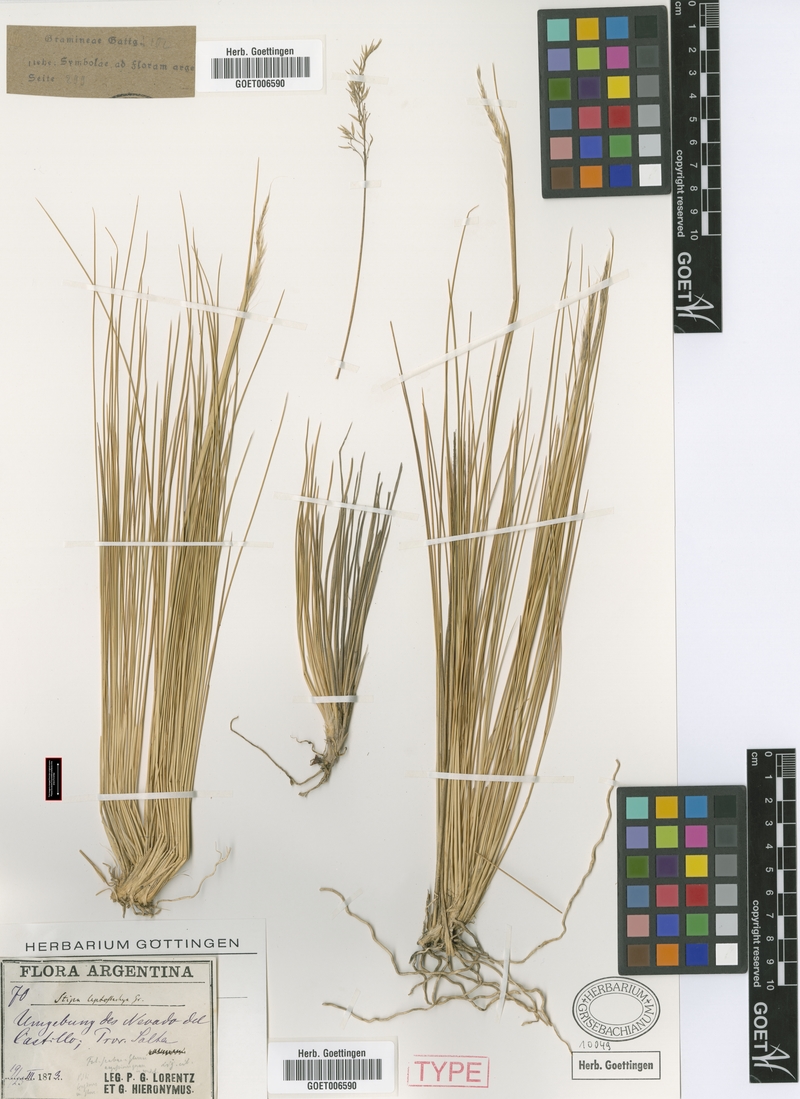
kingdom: Plantae
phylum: Tracheophyta
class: Liliopsida
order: Poales
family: Poaceae
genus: Jarava
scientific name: Jarava leptostachya
